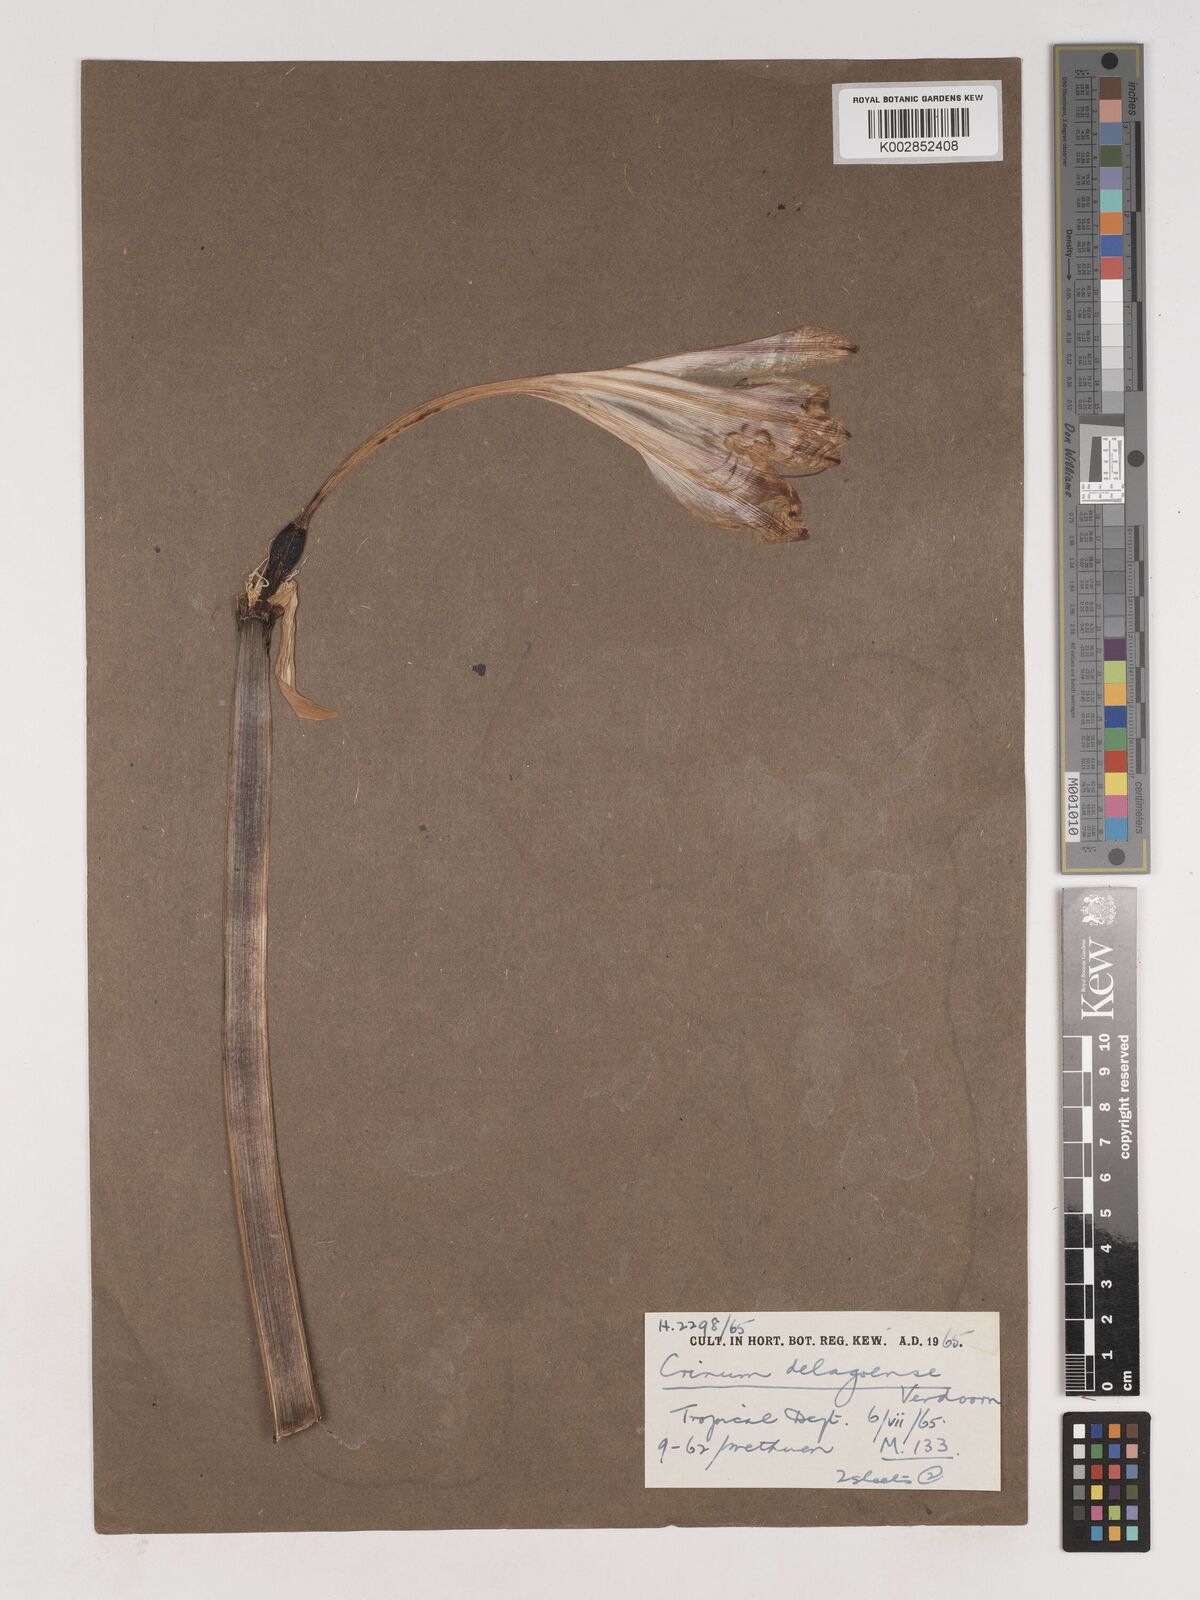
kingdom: Plantae
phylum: Tracheophyta
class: Liliopsida
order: Asparagales
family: Amaryllidaceae
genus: Crinum
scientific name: Crinum stuhlmannii
